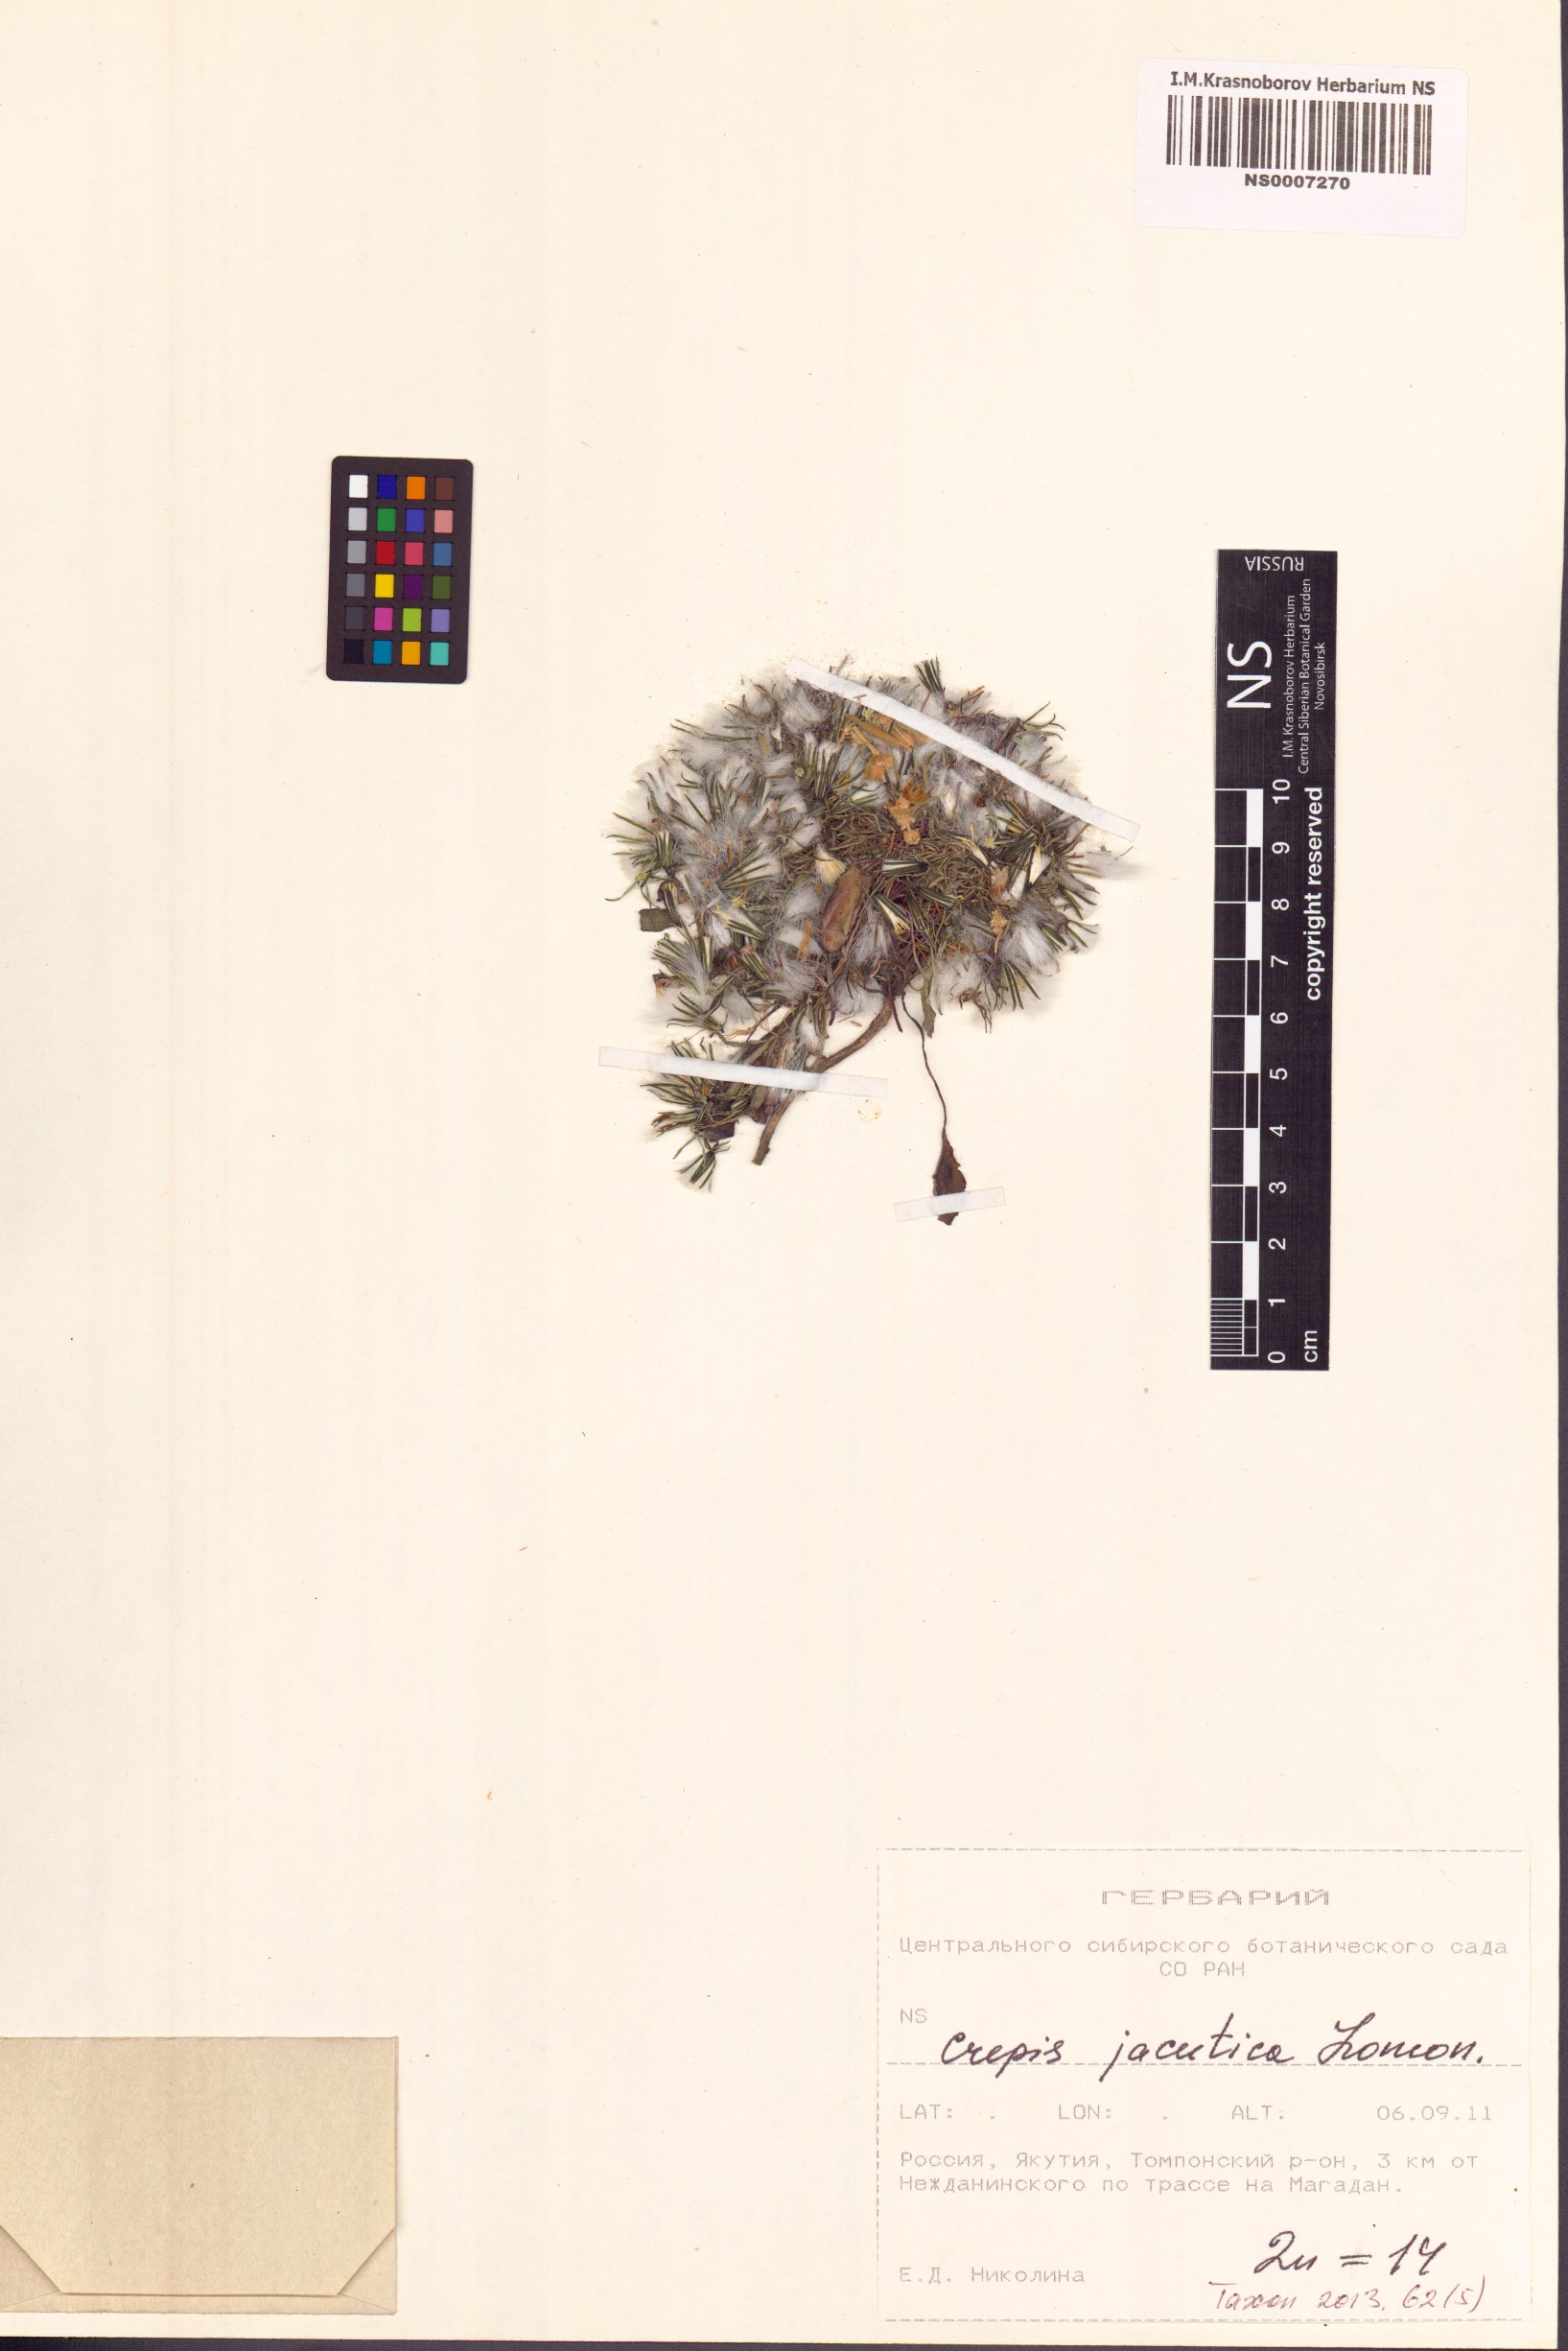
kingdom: Plantae
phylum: Tracheophyta
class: Magnoliopsida
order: Asterales
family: Asteraceae
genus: Askellia
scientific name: Askellia jacutica
